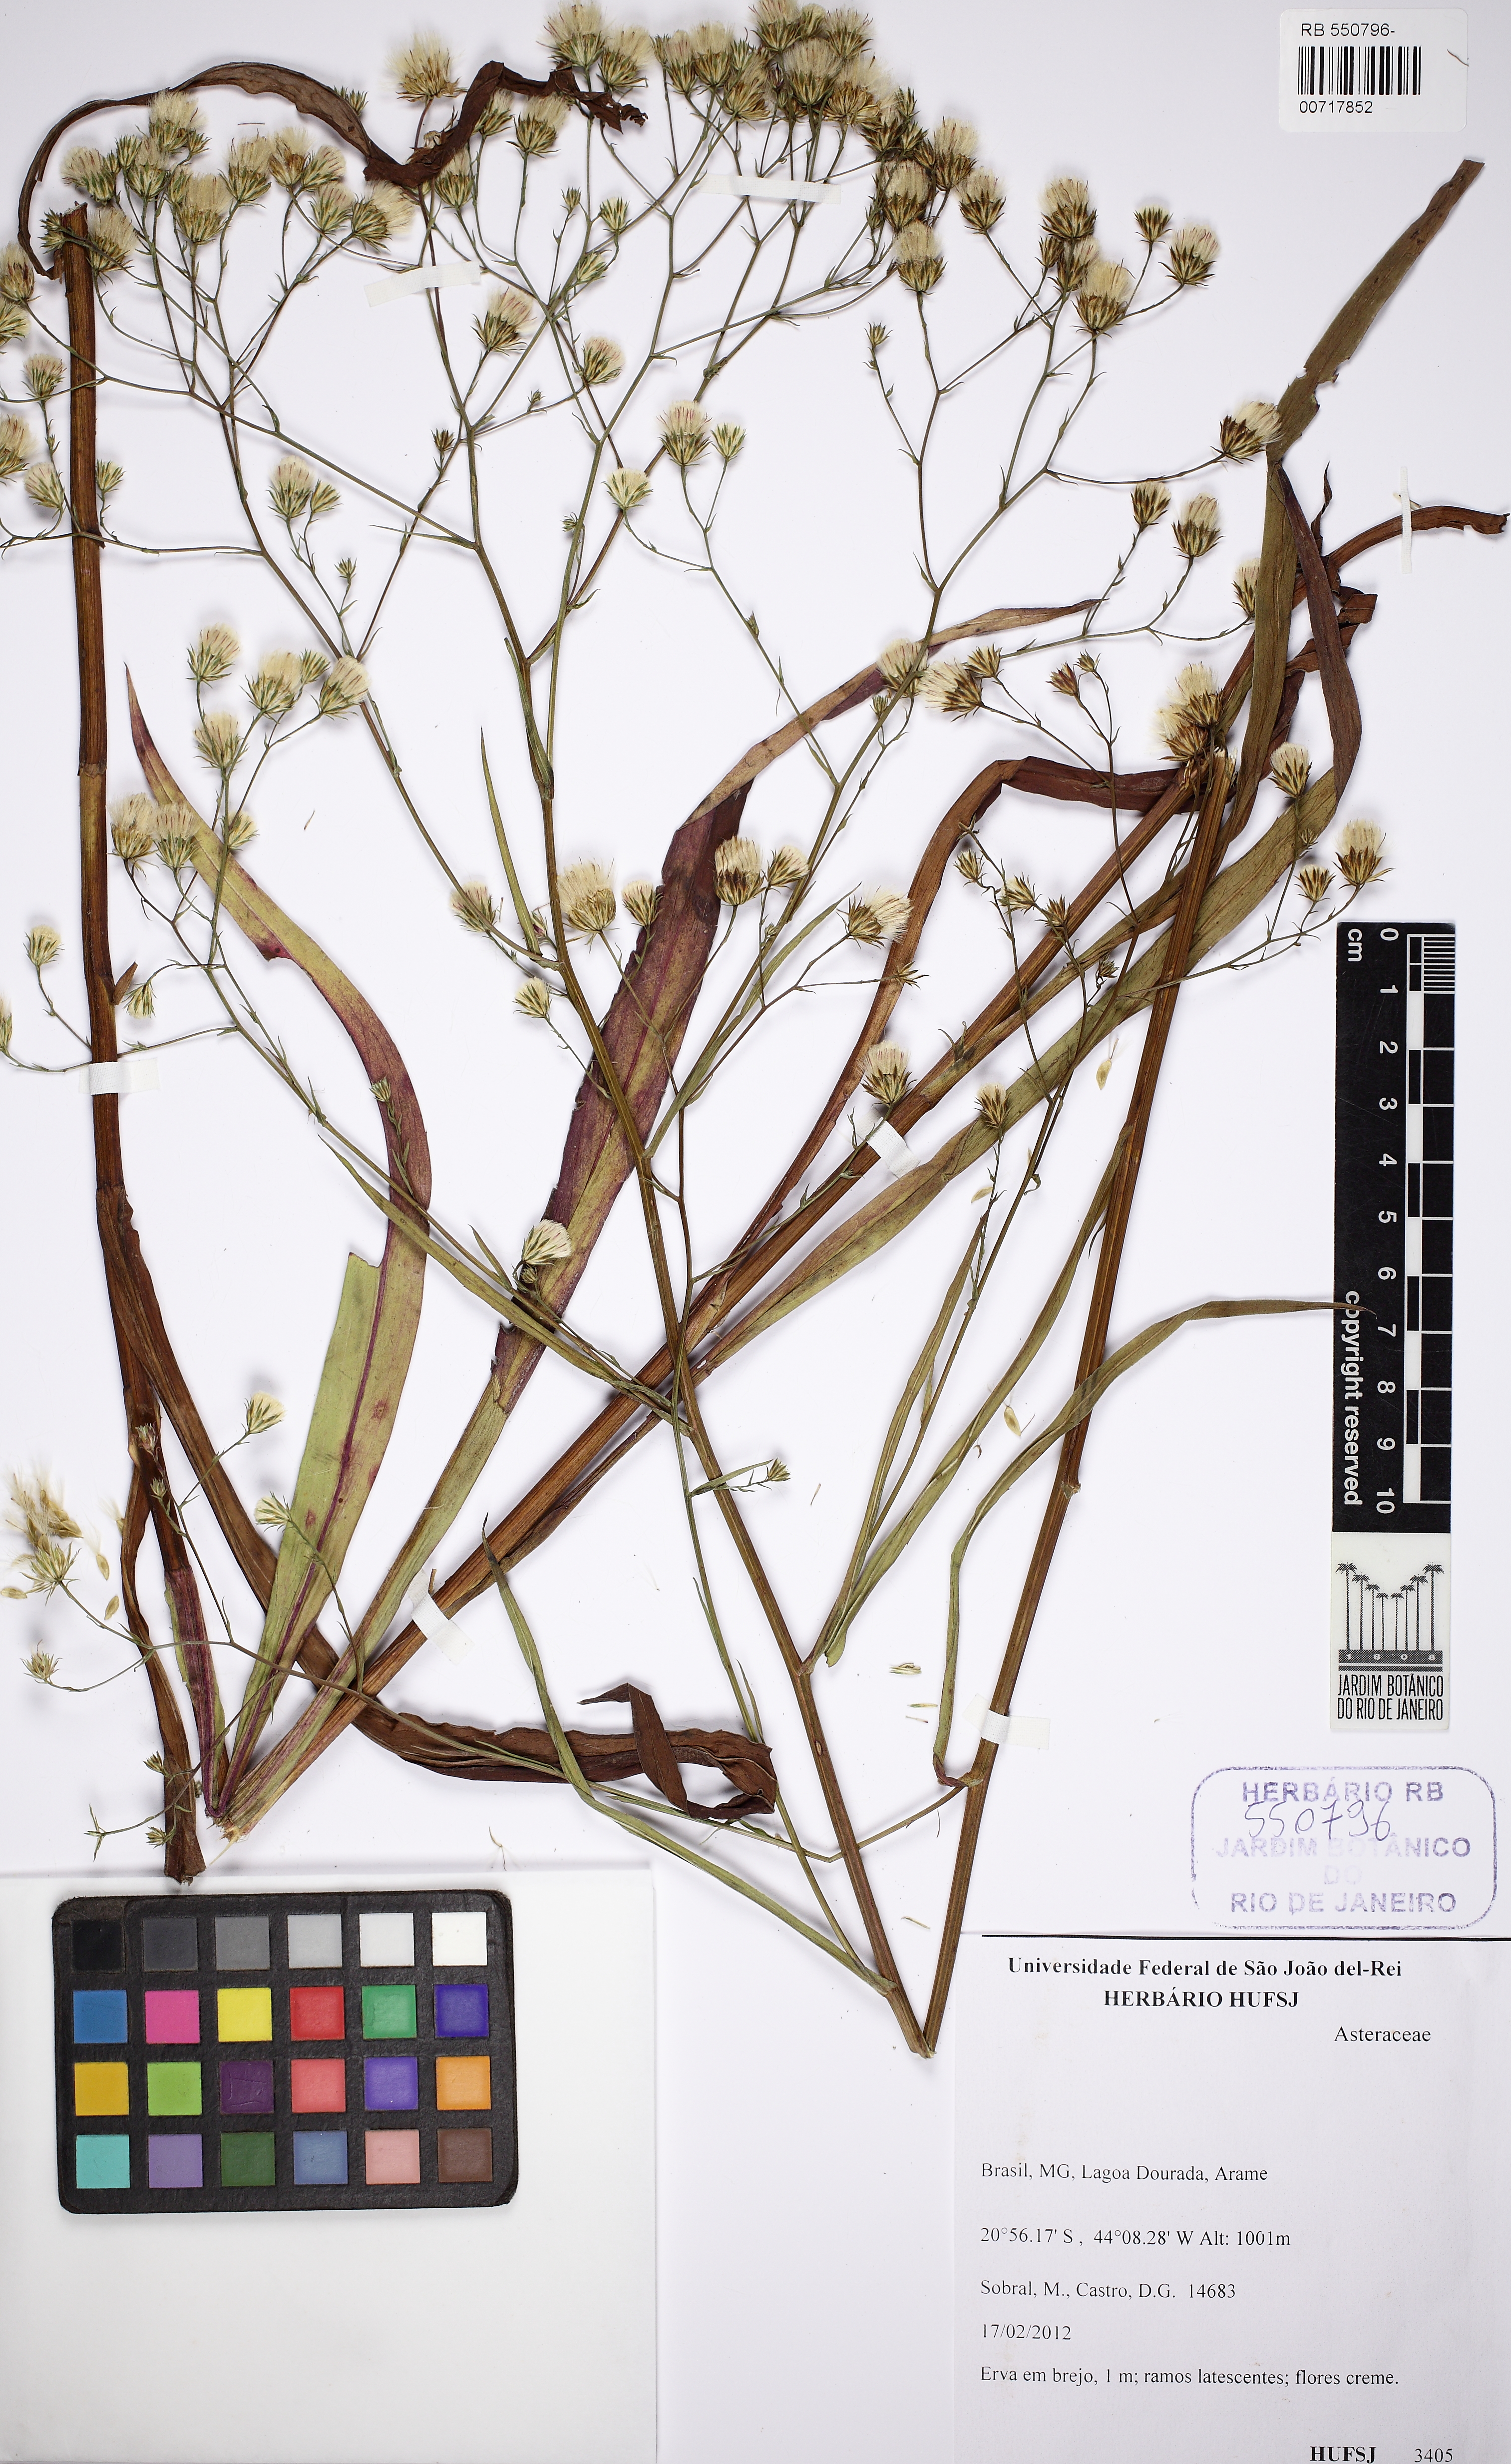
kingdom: Plantae
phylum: Tracheophyta
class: Magnoliopsida
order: Asterales
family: Asteraceae
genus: Hypochaeris
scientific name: Hypochaeris
